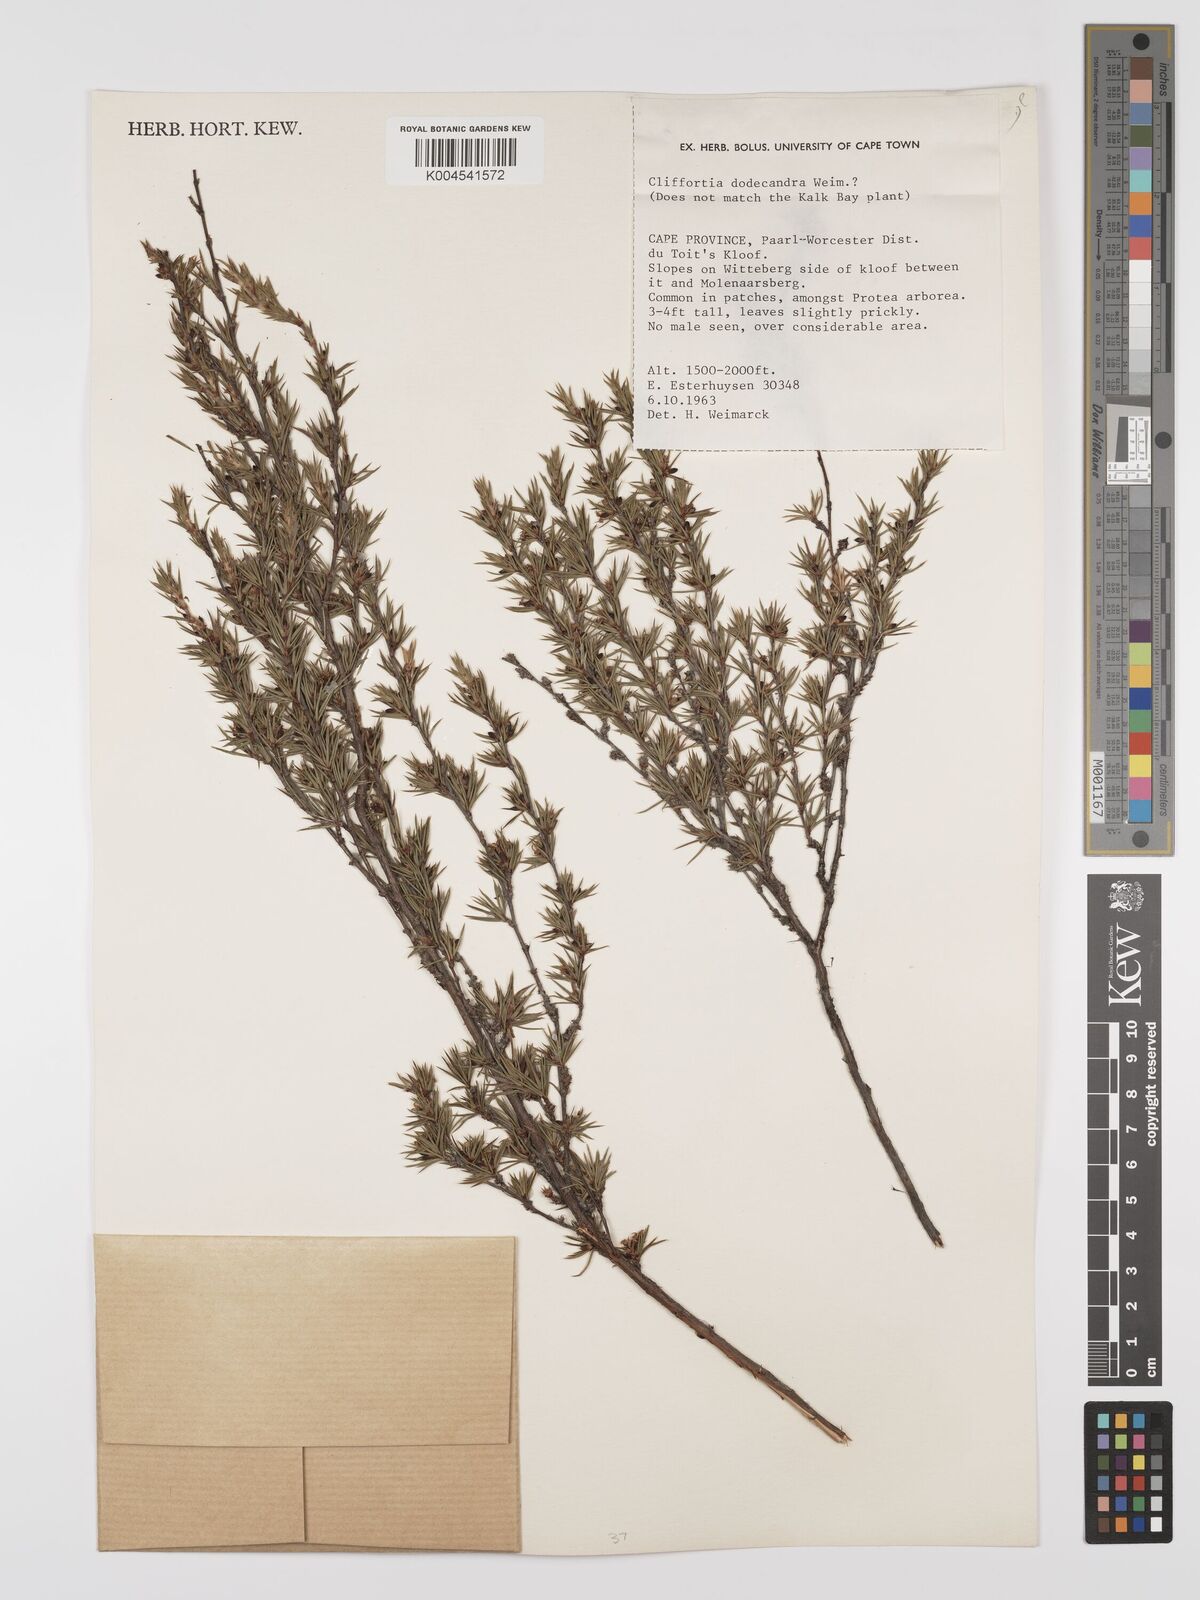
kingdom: Plantae
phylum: Tracheophyta
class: Magnoliopsida
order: Rosales
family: Rosaceae
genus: Cliffortia
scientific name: Cliffortia dodecandra
